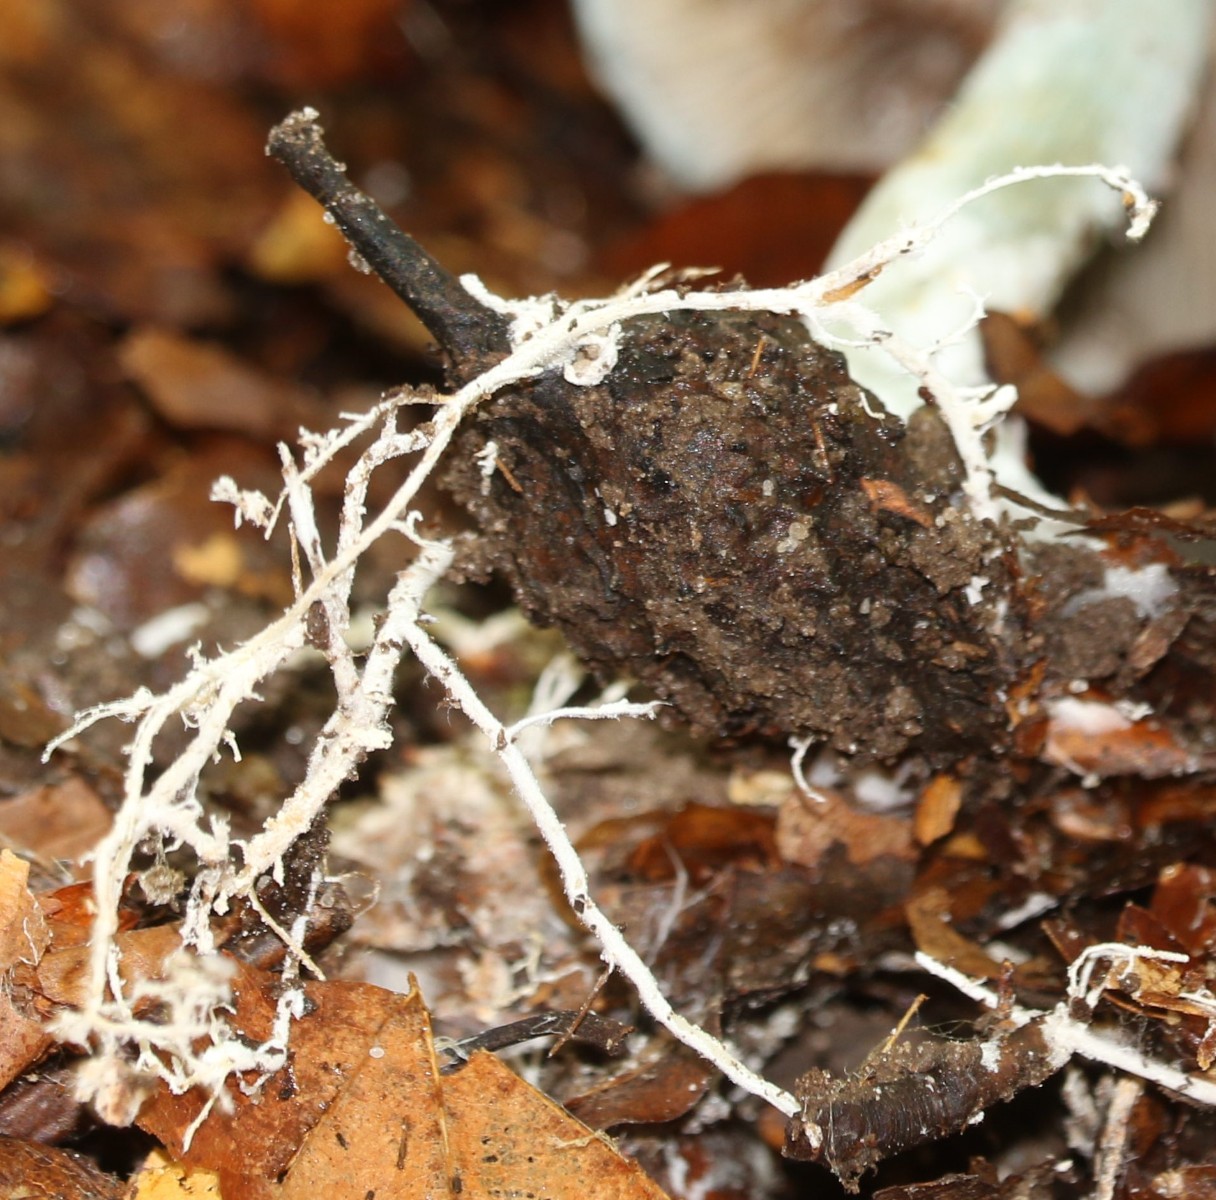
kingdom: Fungi
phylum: Basidiomycota
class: Agaricomycetes
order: Agaricales
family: Strophariaceae
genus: Stropharia
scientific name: Stropharia cyanea
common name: blågrøn bredblad
